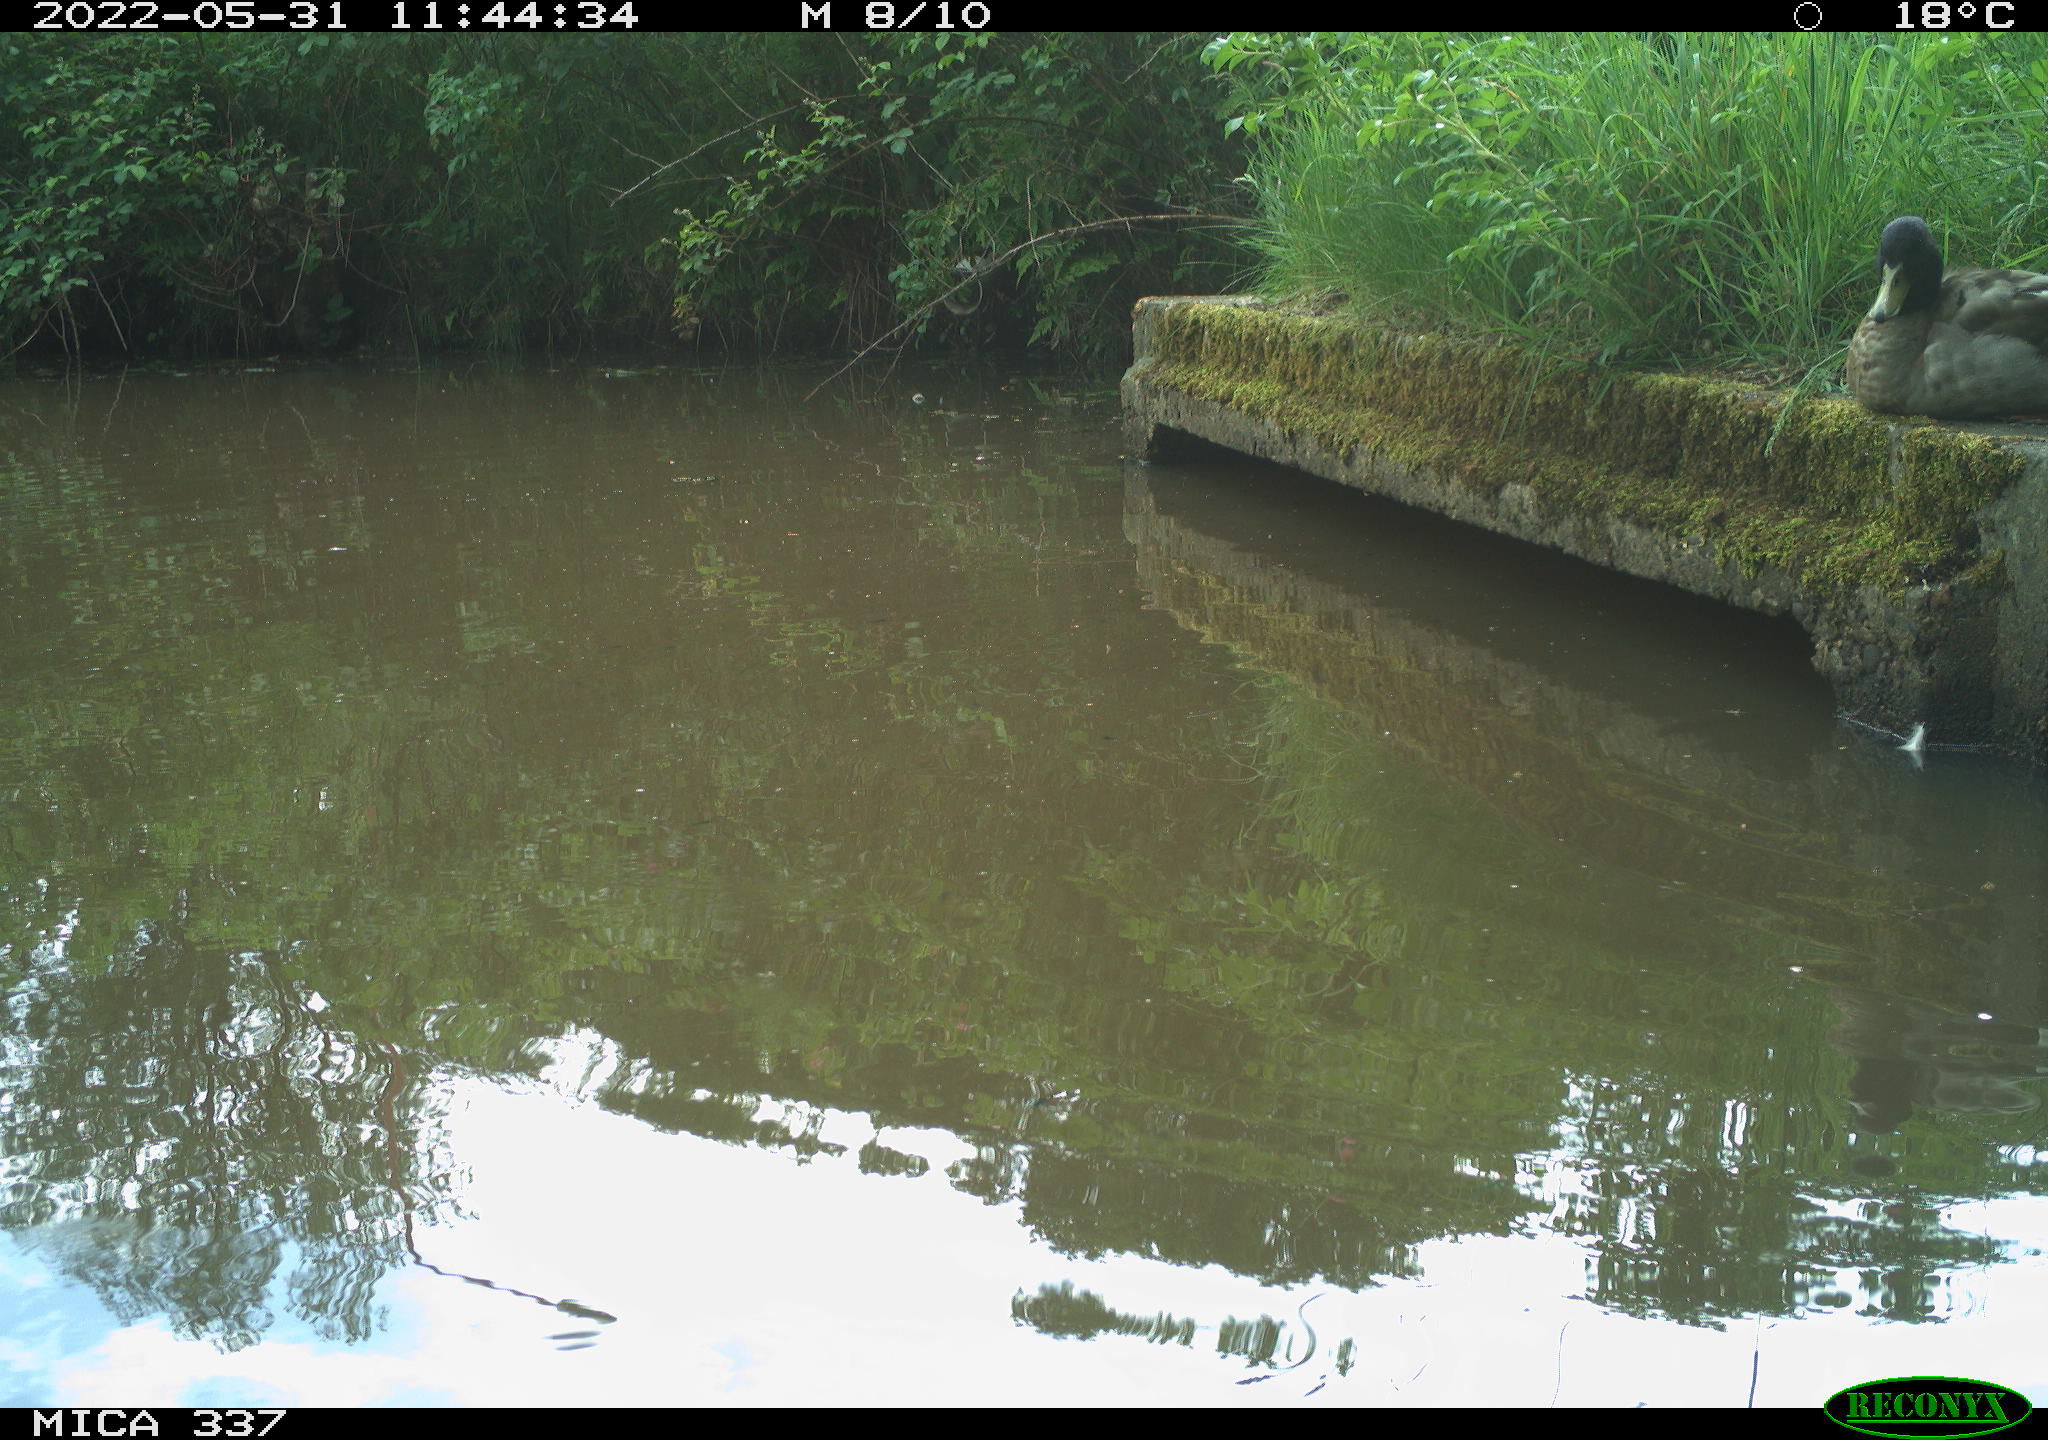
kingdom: Animalia
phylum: Chordata
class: Aves
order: Anseriformes
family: Anatidae
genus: Anas
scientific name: Anas platyrhynchos
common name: Mallard
